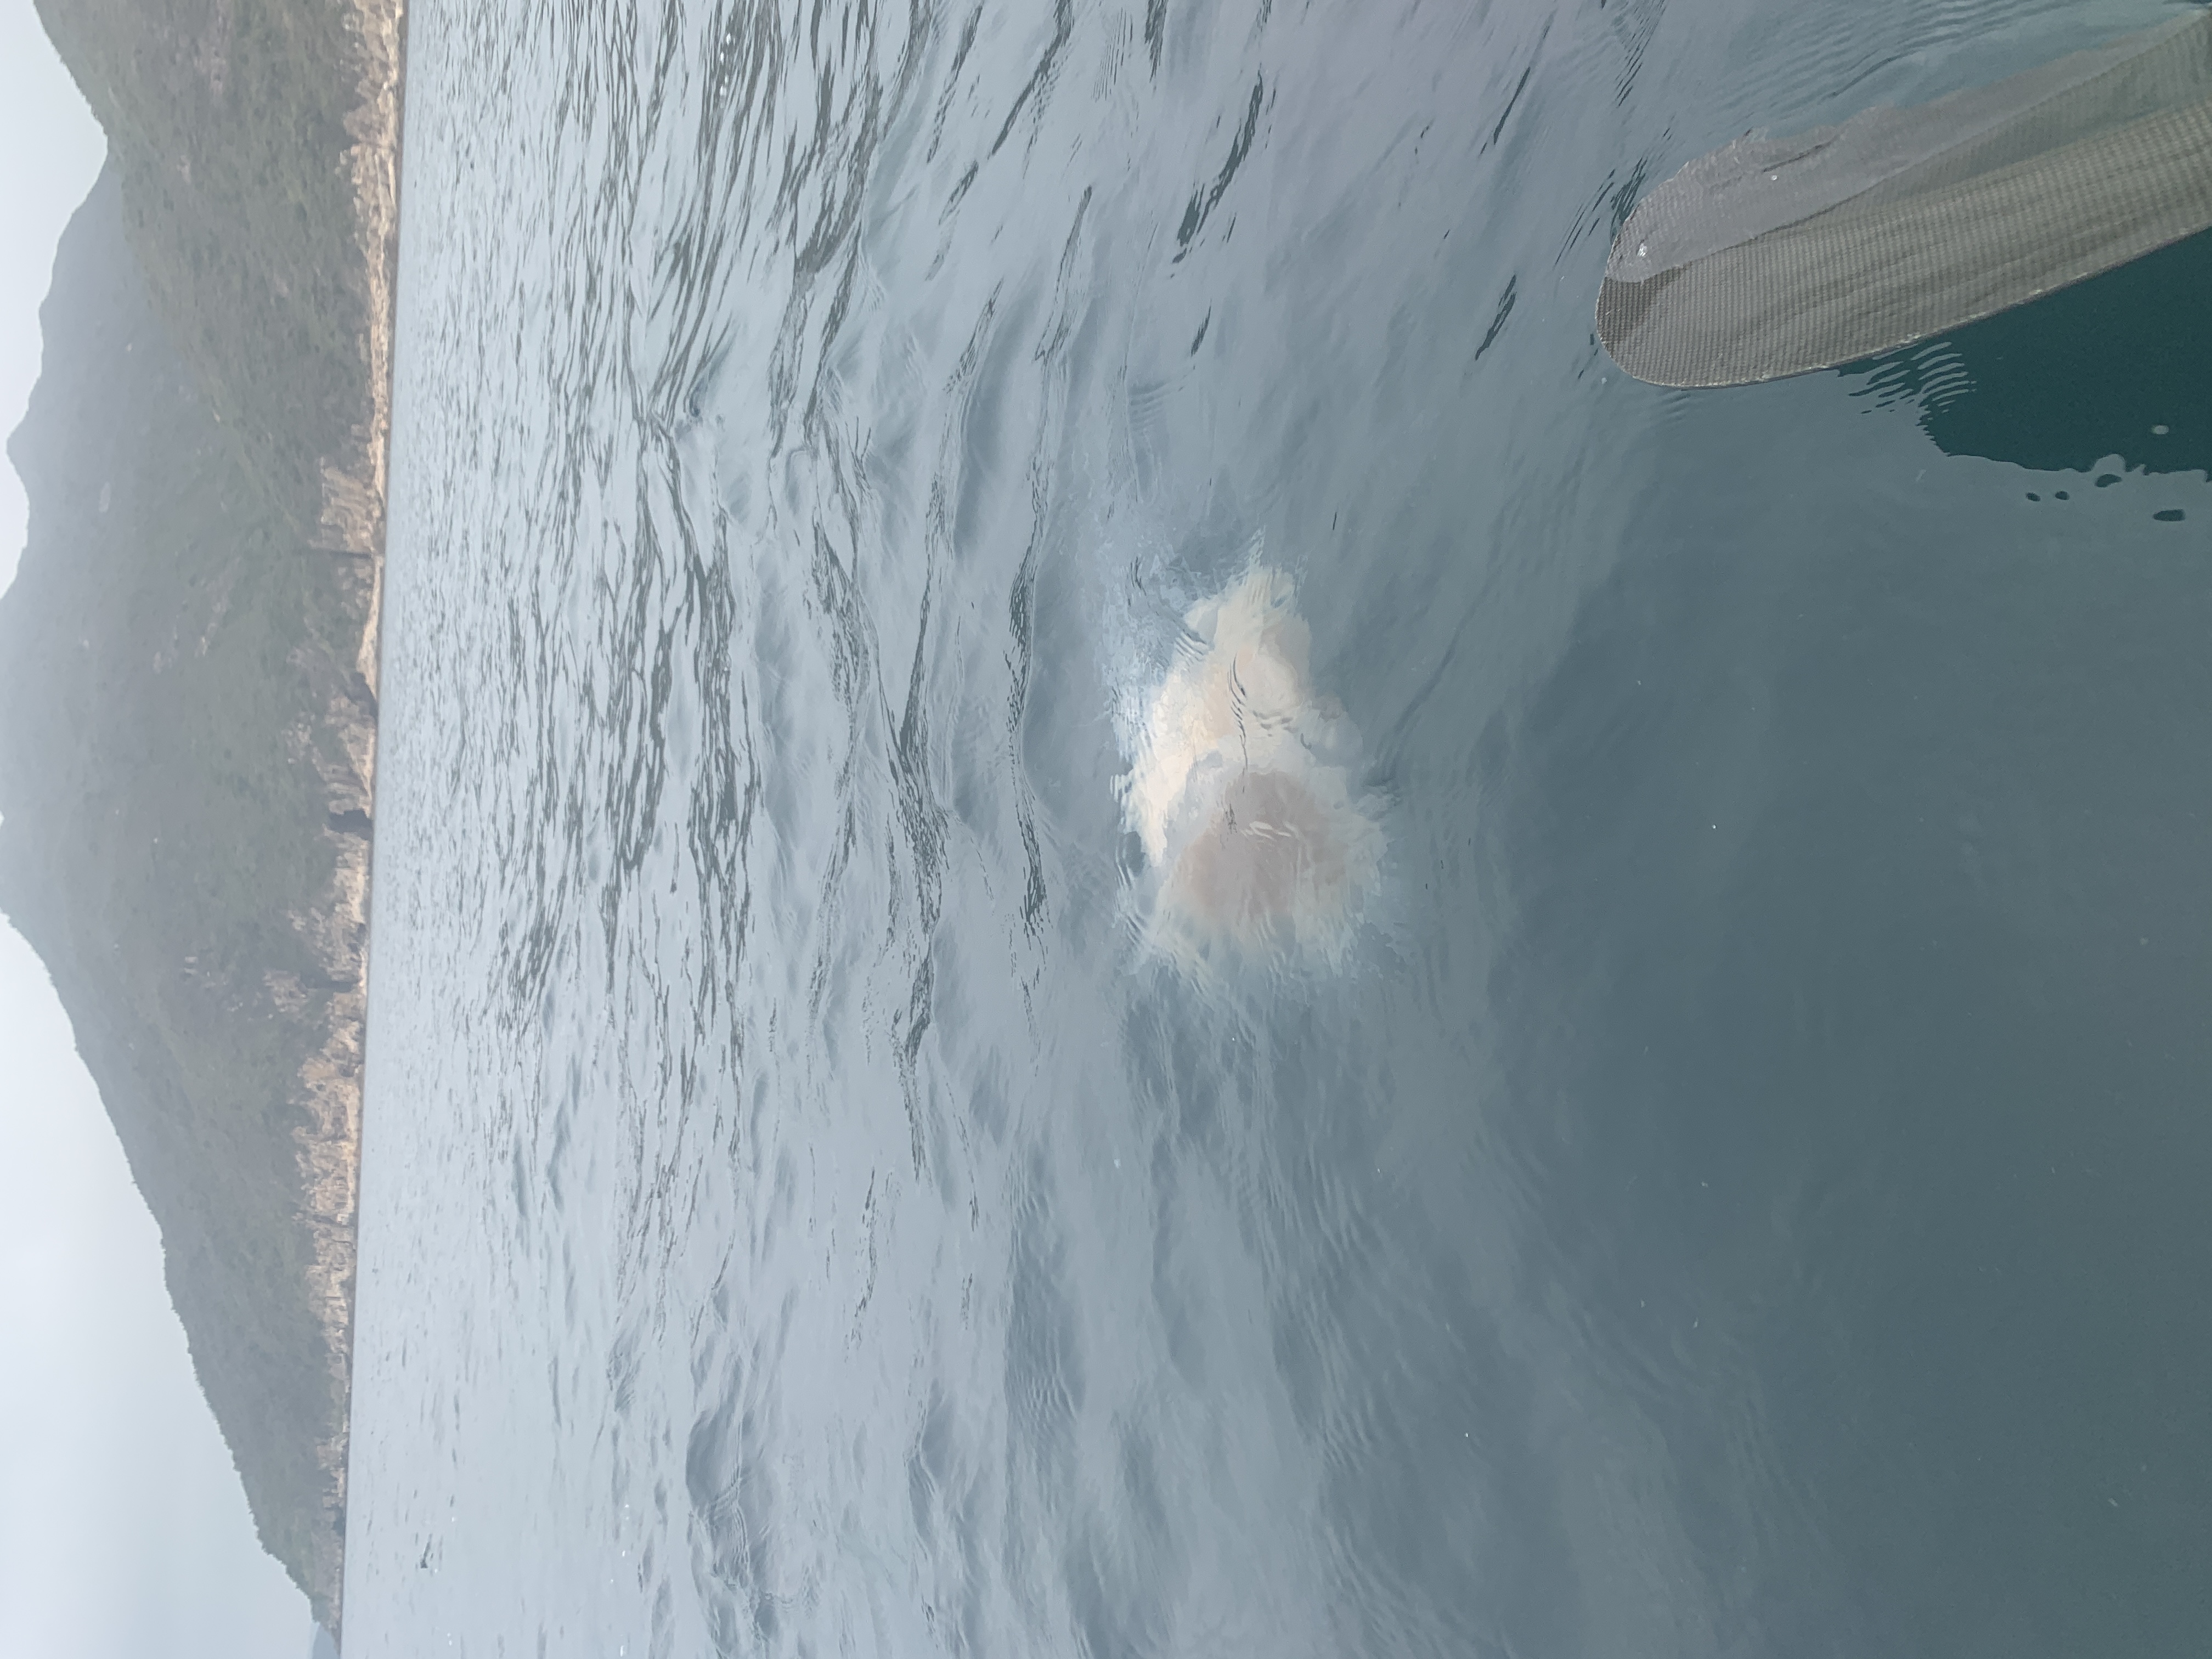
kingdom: Animalia
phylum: Cnidaria
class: Scyphozoa
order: Semaeostomeae
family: Cyaneidae
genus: Cyanea
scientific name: Cyanea nozakii
